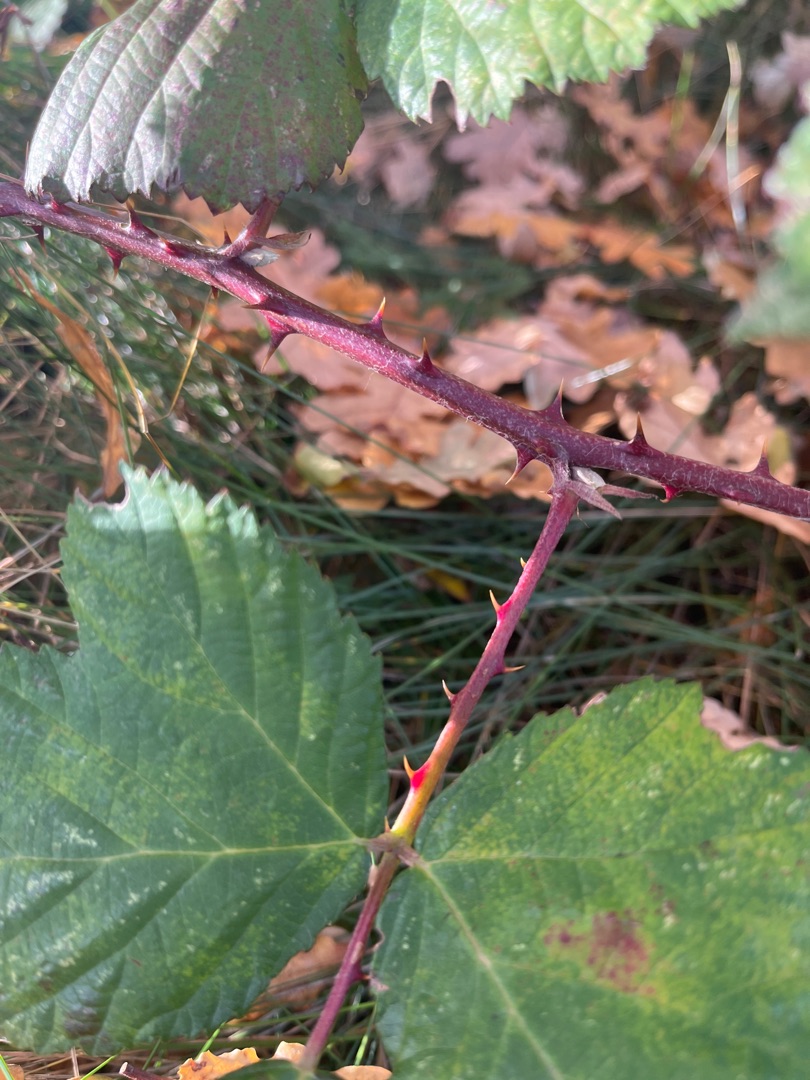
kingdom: Plantae
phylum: Tracheophyta
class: Magnoliopsida
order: Rosales
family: Rosaceae
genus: Rubus
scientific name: Rubus armeniacus
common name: Armensk brombær
